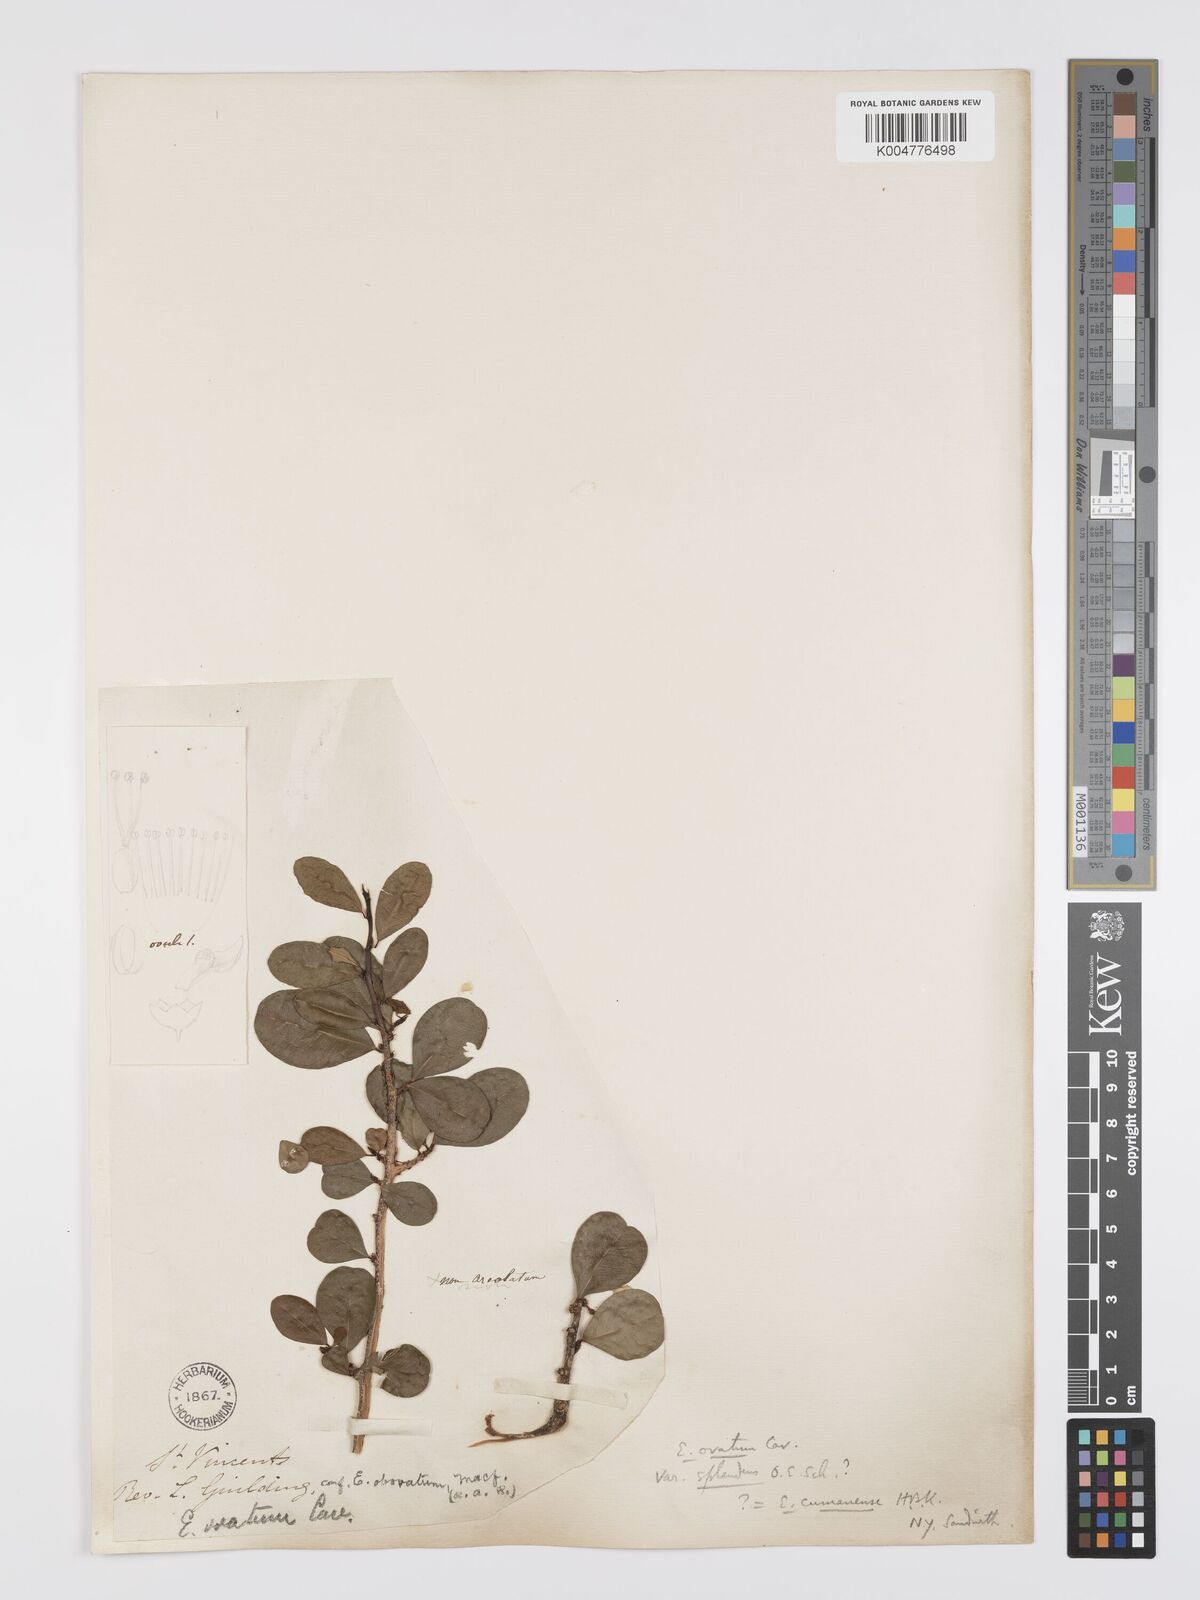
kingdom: Plantae
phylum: Tracheophyta
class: Magnoliopsida
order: Malpighiales
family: Erythroxylaceae
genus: Erythroxylum
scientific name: Erythroxylum havanense
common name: Bracelet
